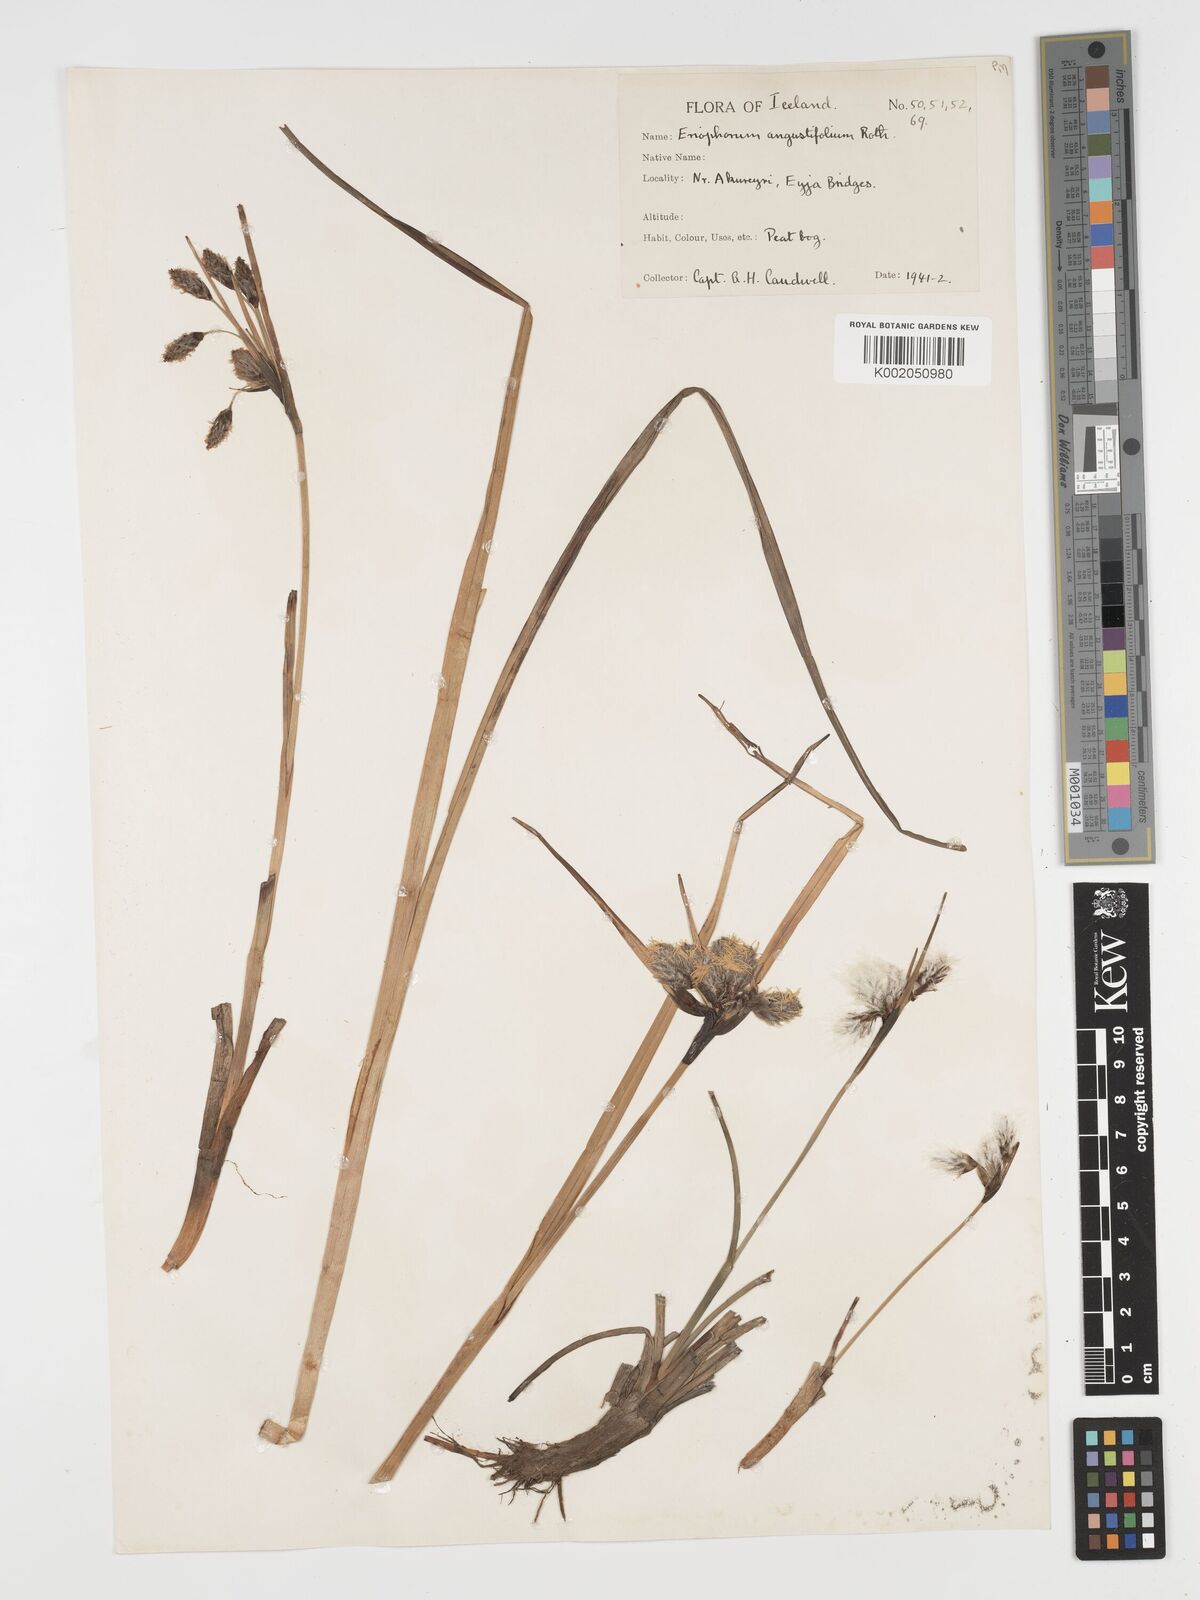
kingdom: Plantae
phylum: Tracheophyta
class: Liliopsida
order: Poales
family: Cyperaceae
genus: Eriophorum
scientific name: Eriophorum angustifolium
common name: Common cottongrass
